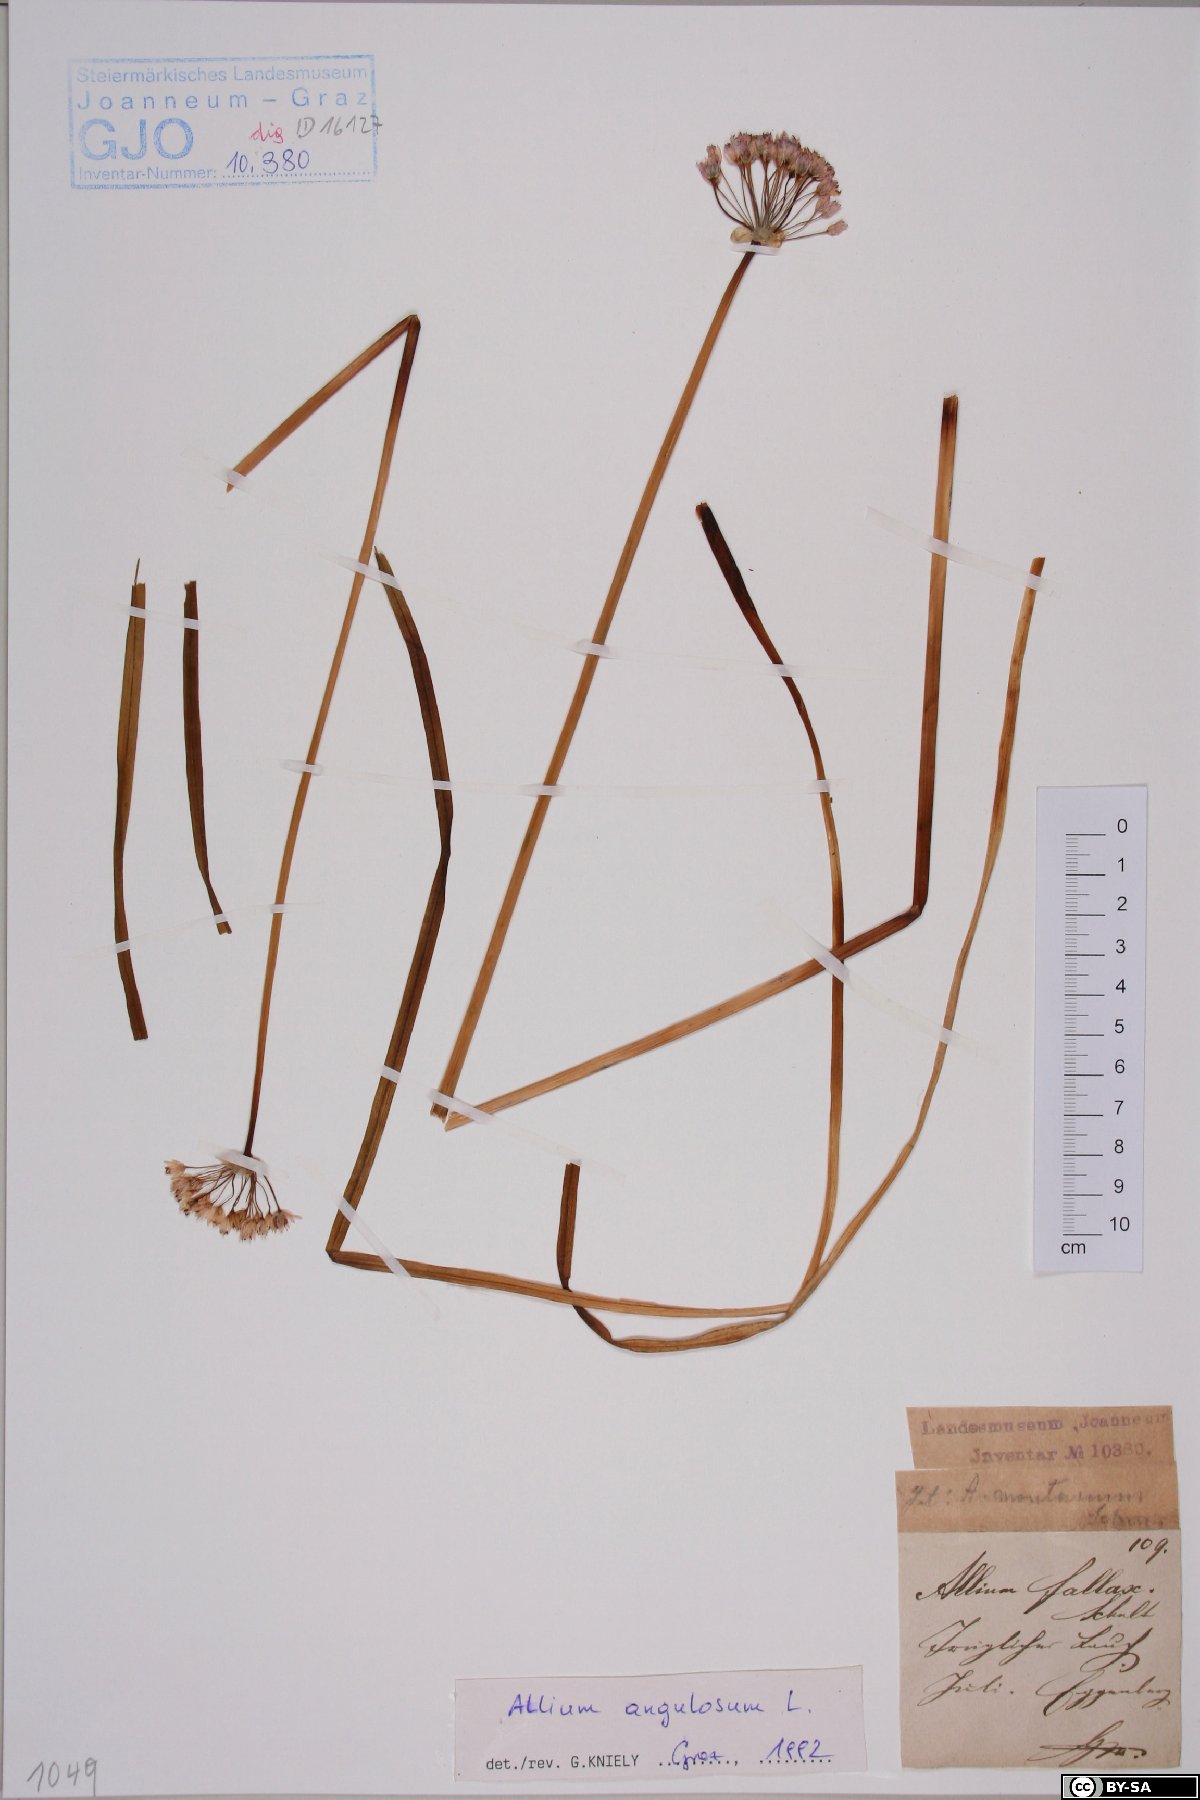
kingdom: Plantae
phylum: Tracheophyta
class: Liliopsida
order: Asparagales
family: Amaryllidaceae
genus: Allium
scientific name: Allium angulosum
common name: Mouse garlic
